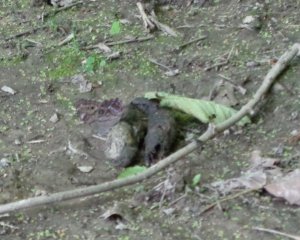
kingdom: Animalia
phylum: Arthropoda
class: Insecta
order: Lepidoptera
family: Nymphalidae
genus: Lethe
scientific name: Lethe anthedon
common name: Northern Pearly-Eye
